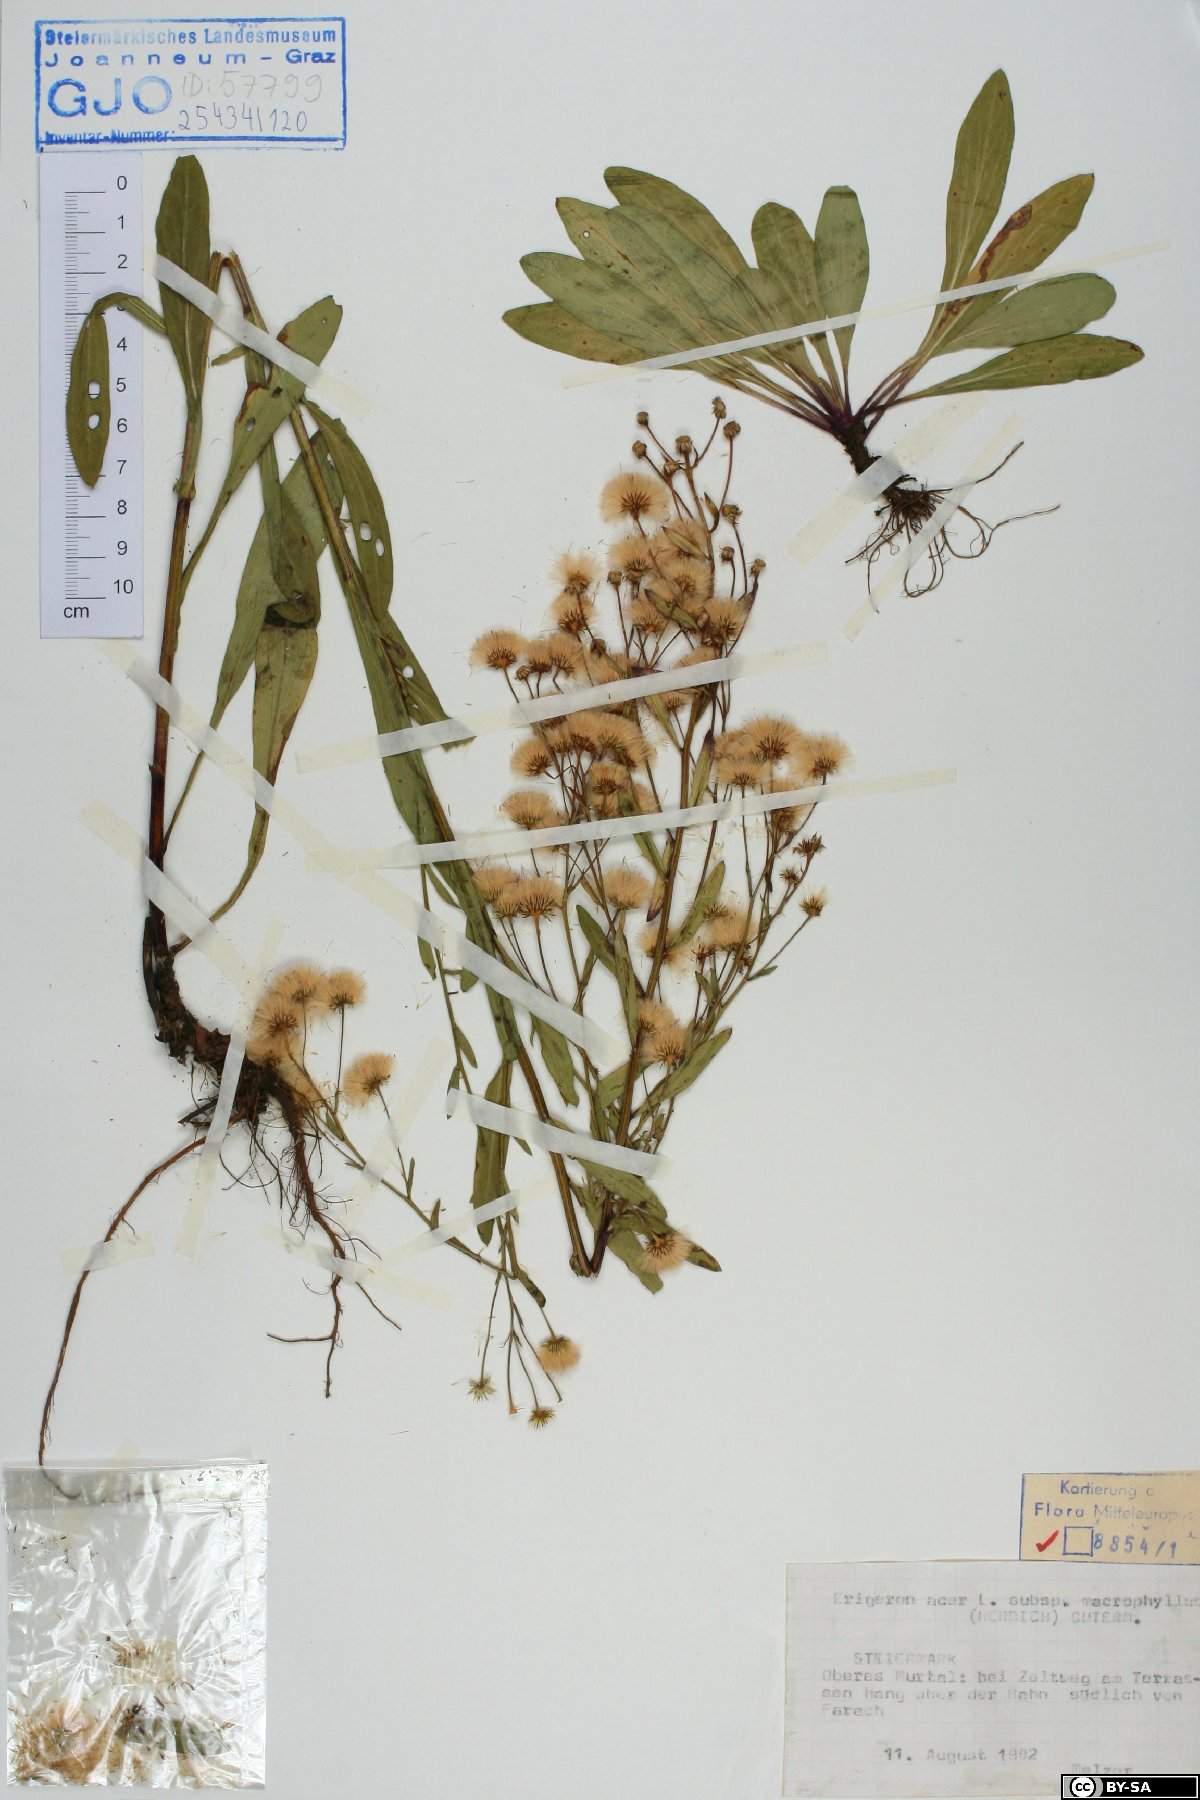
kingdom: Plantae
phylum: Tracheophyta
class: Magnoliopsida
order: Asterales
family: Asteraceae
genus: Erigeron
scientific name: Erigeron macrophyllus
